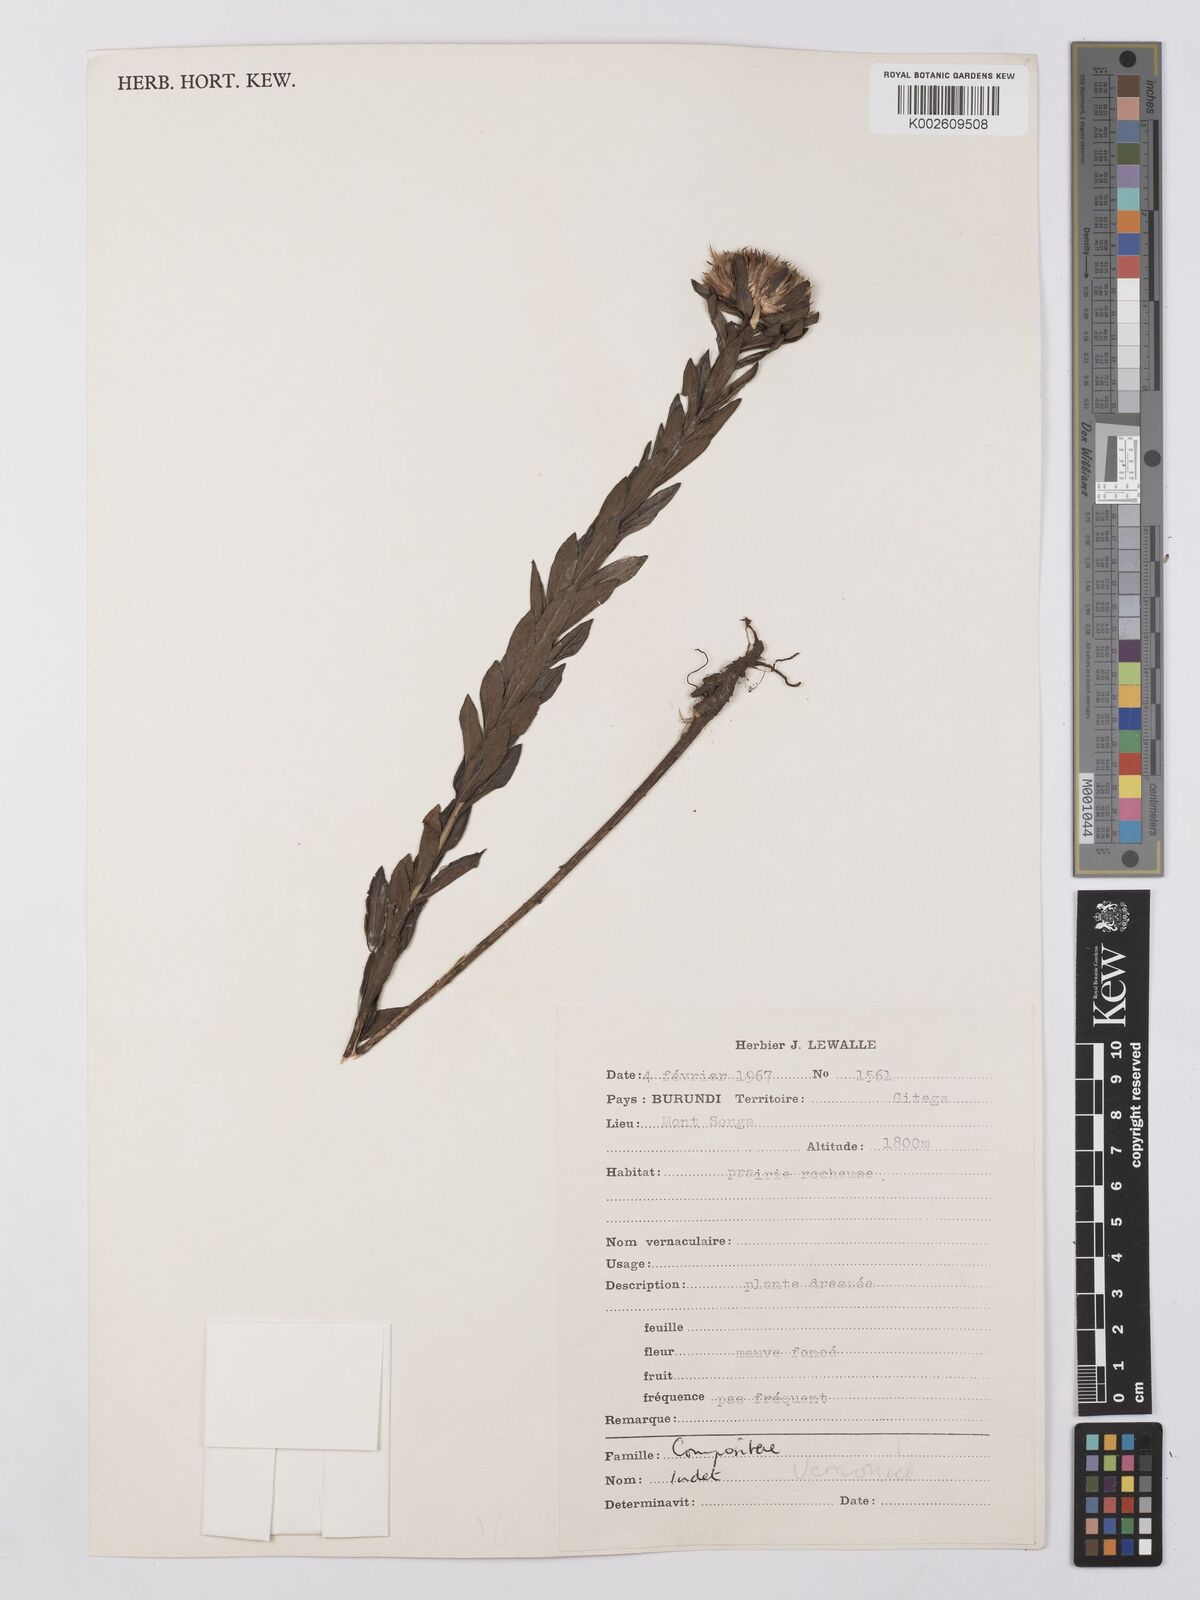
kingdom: Plantae
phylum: Tracheophyta
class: Magnoliopsida
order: Asterales
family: Asteraceae
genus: Vernonia
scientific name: Vernonia
